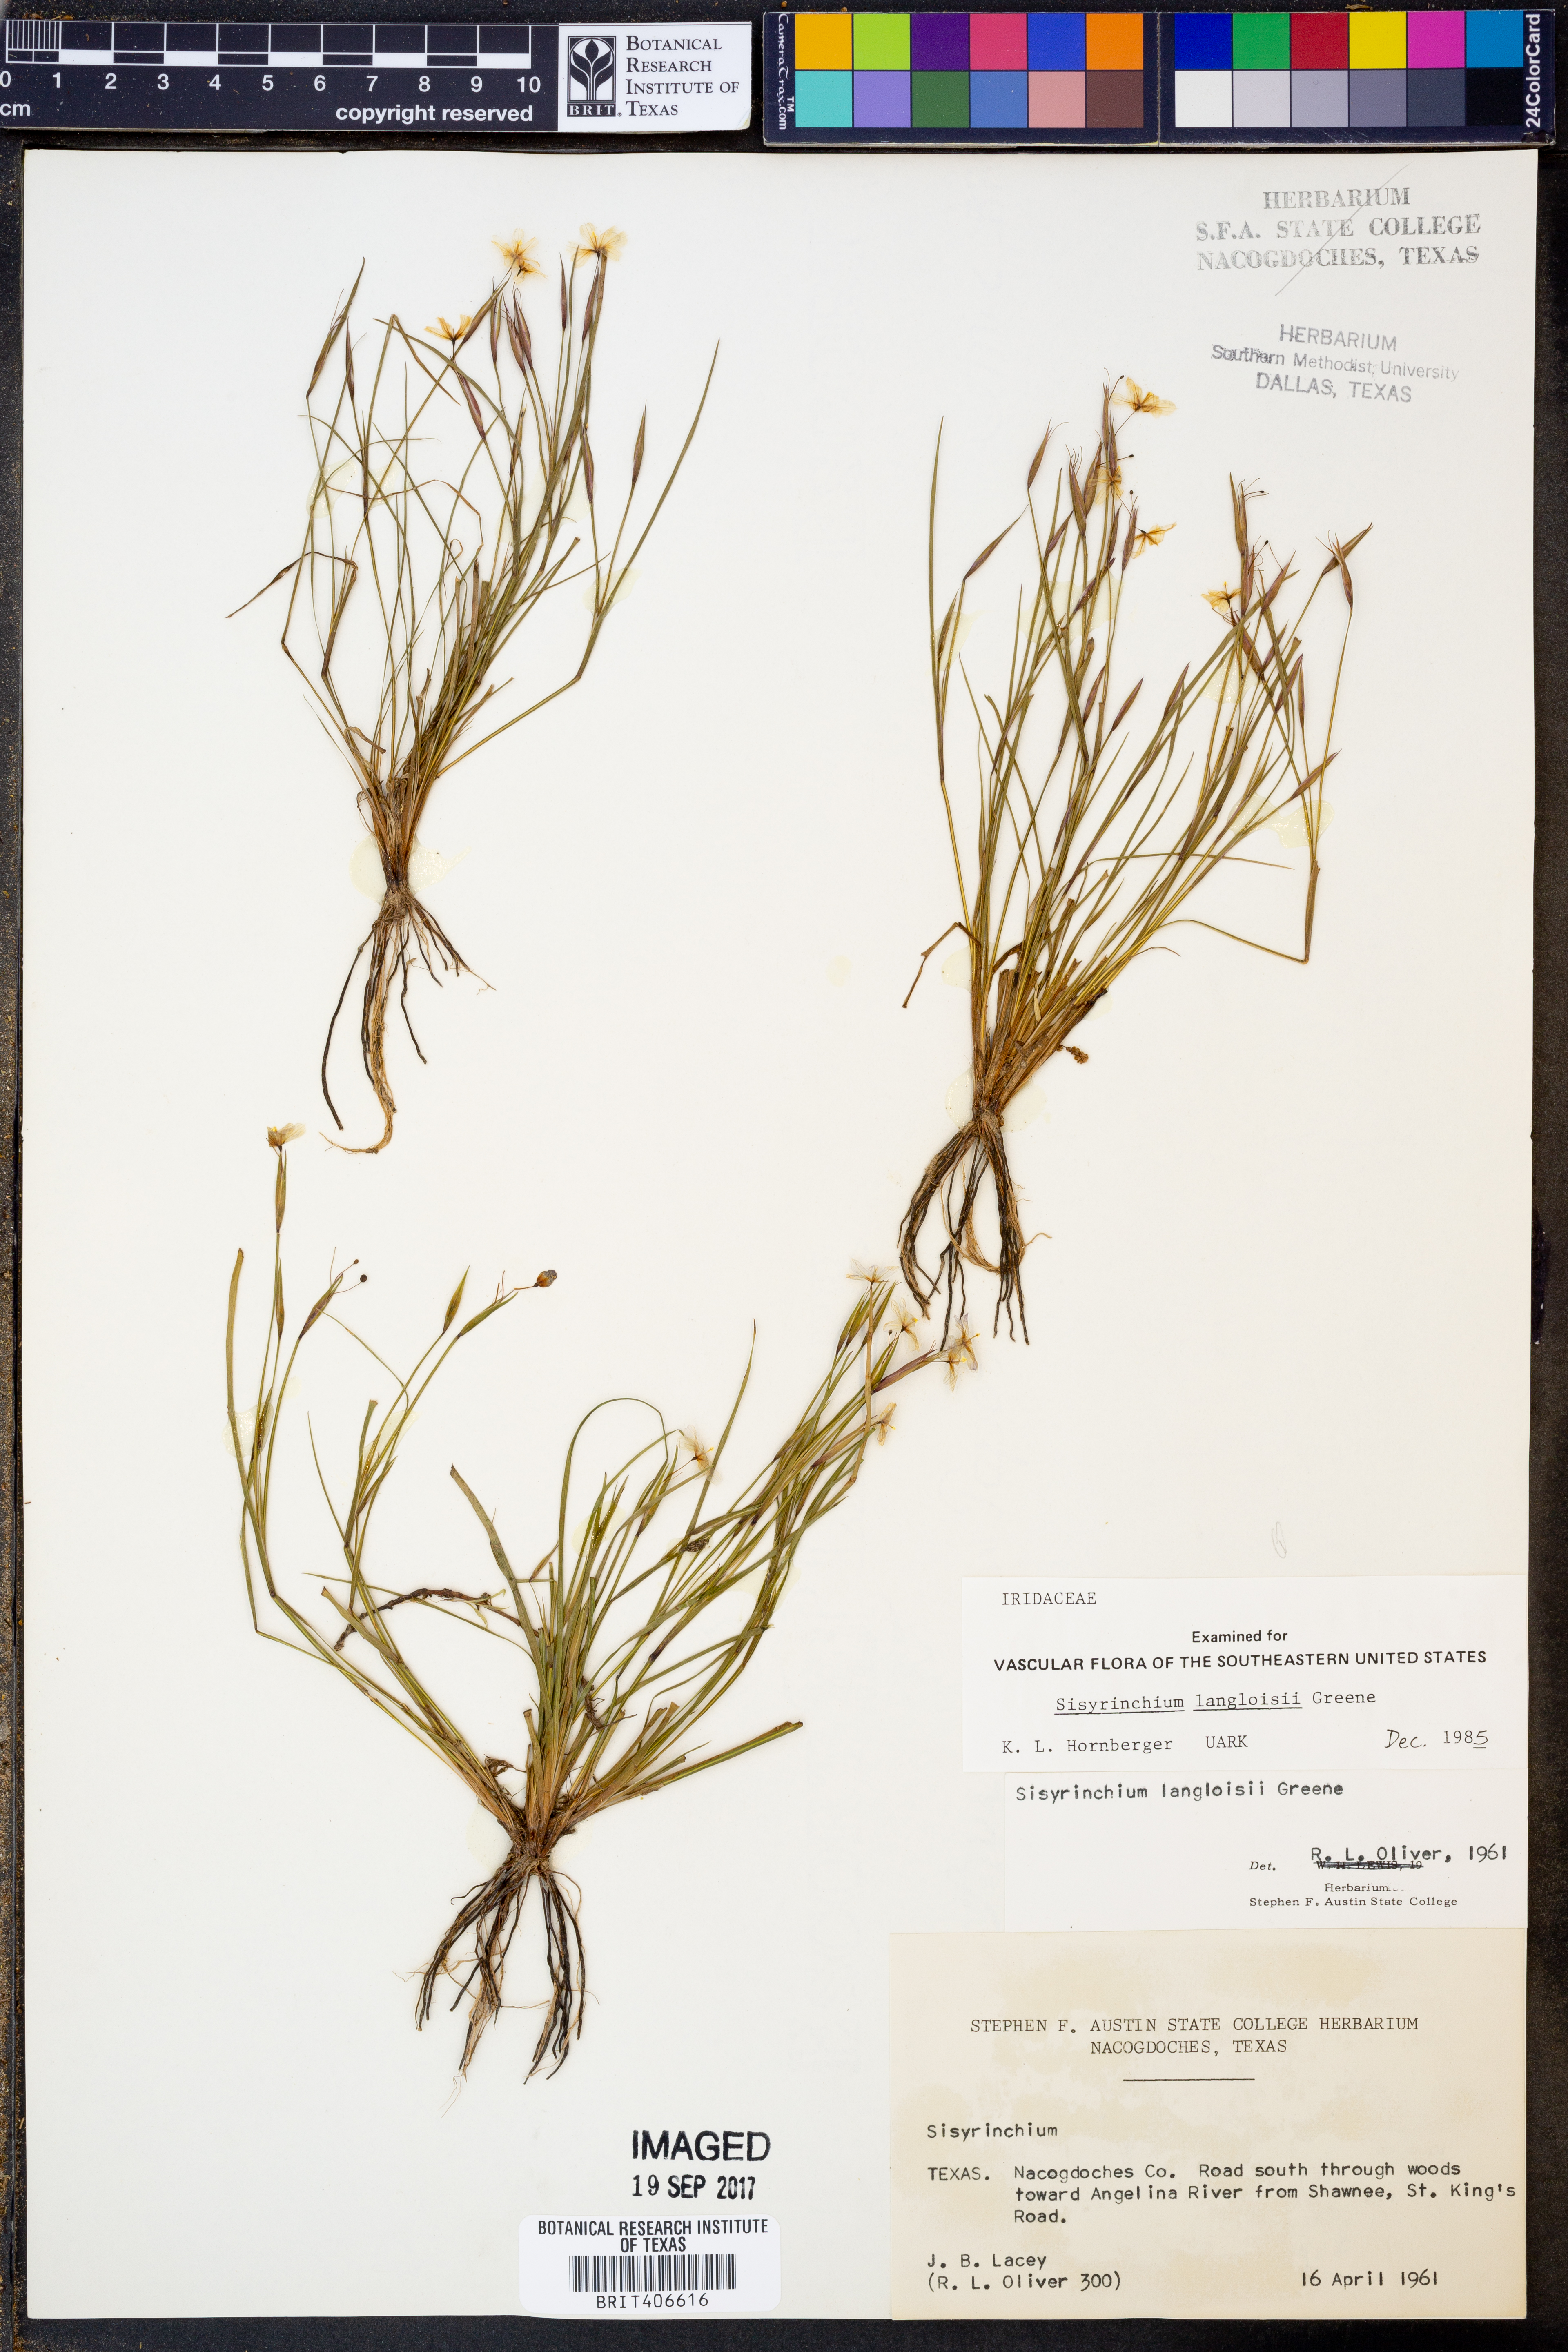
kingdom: Plantae
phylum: Tracheophyta
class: Liliopsida
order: Asparagales
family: Iridaceae
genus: Sisyrinchium
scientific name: Sisyrinchium langloisii
